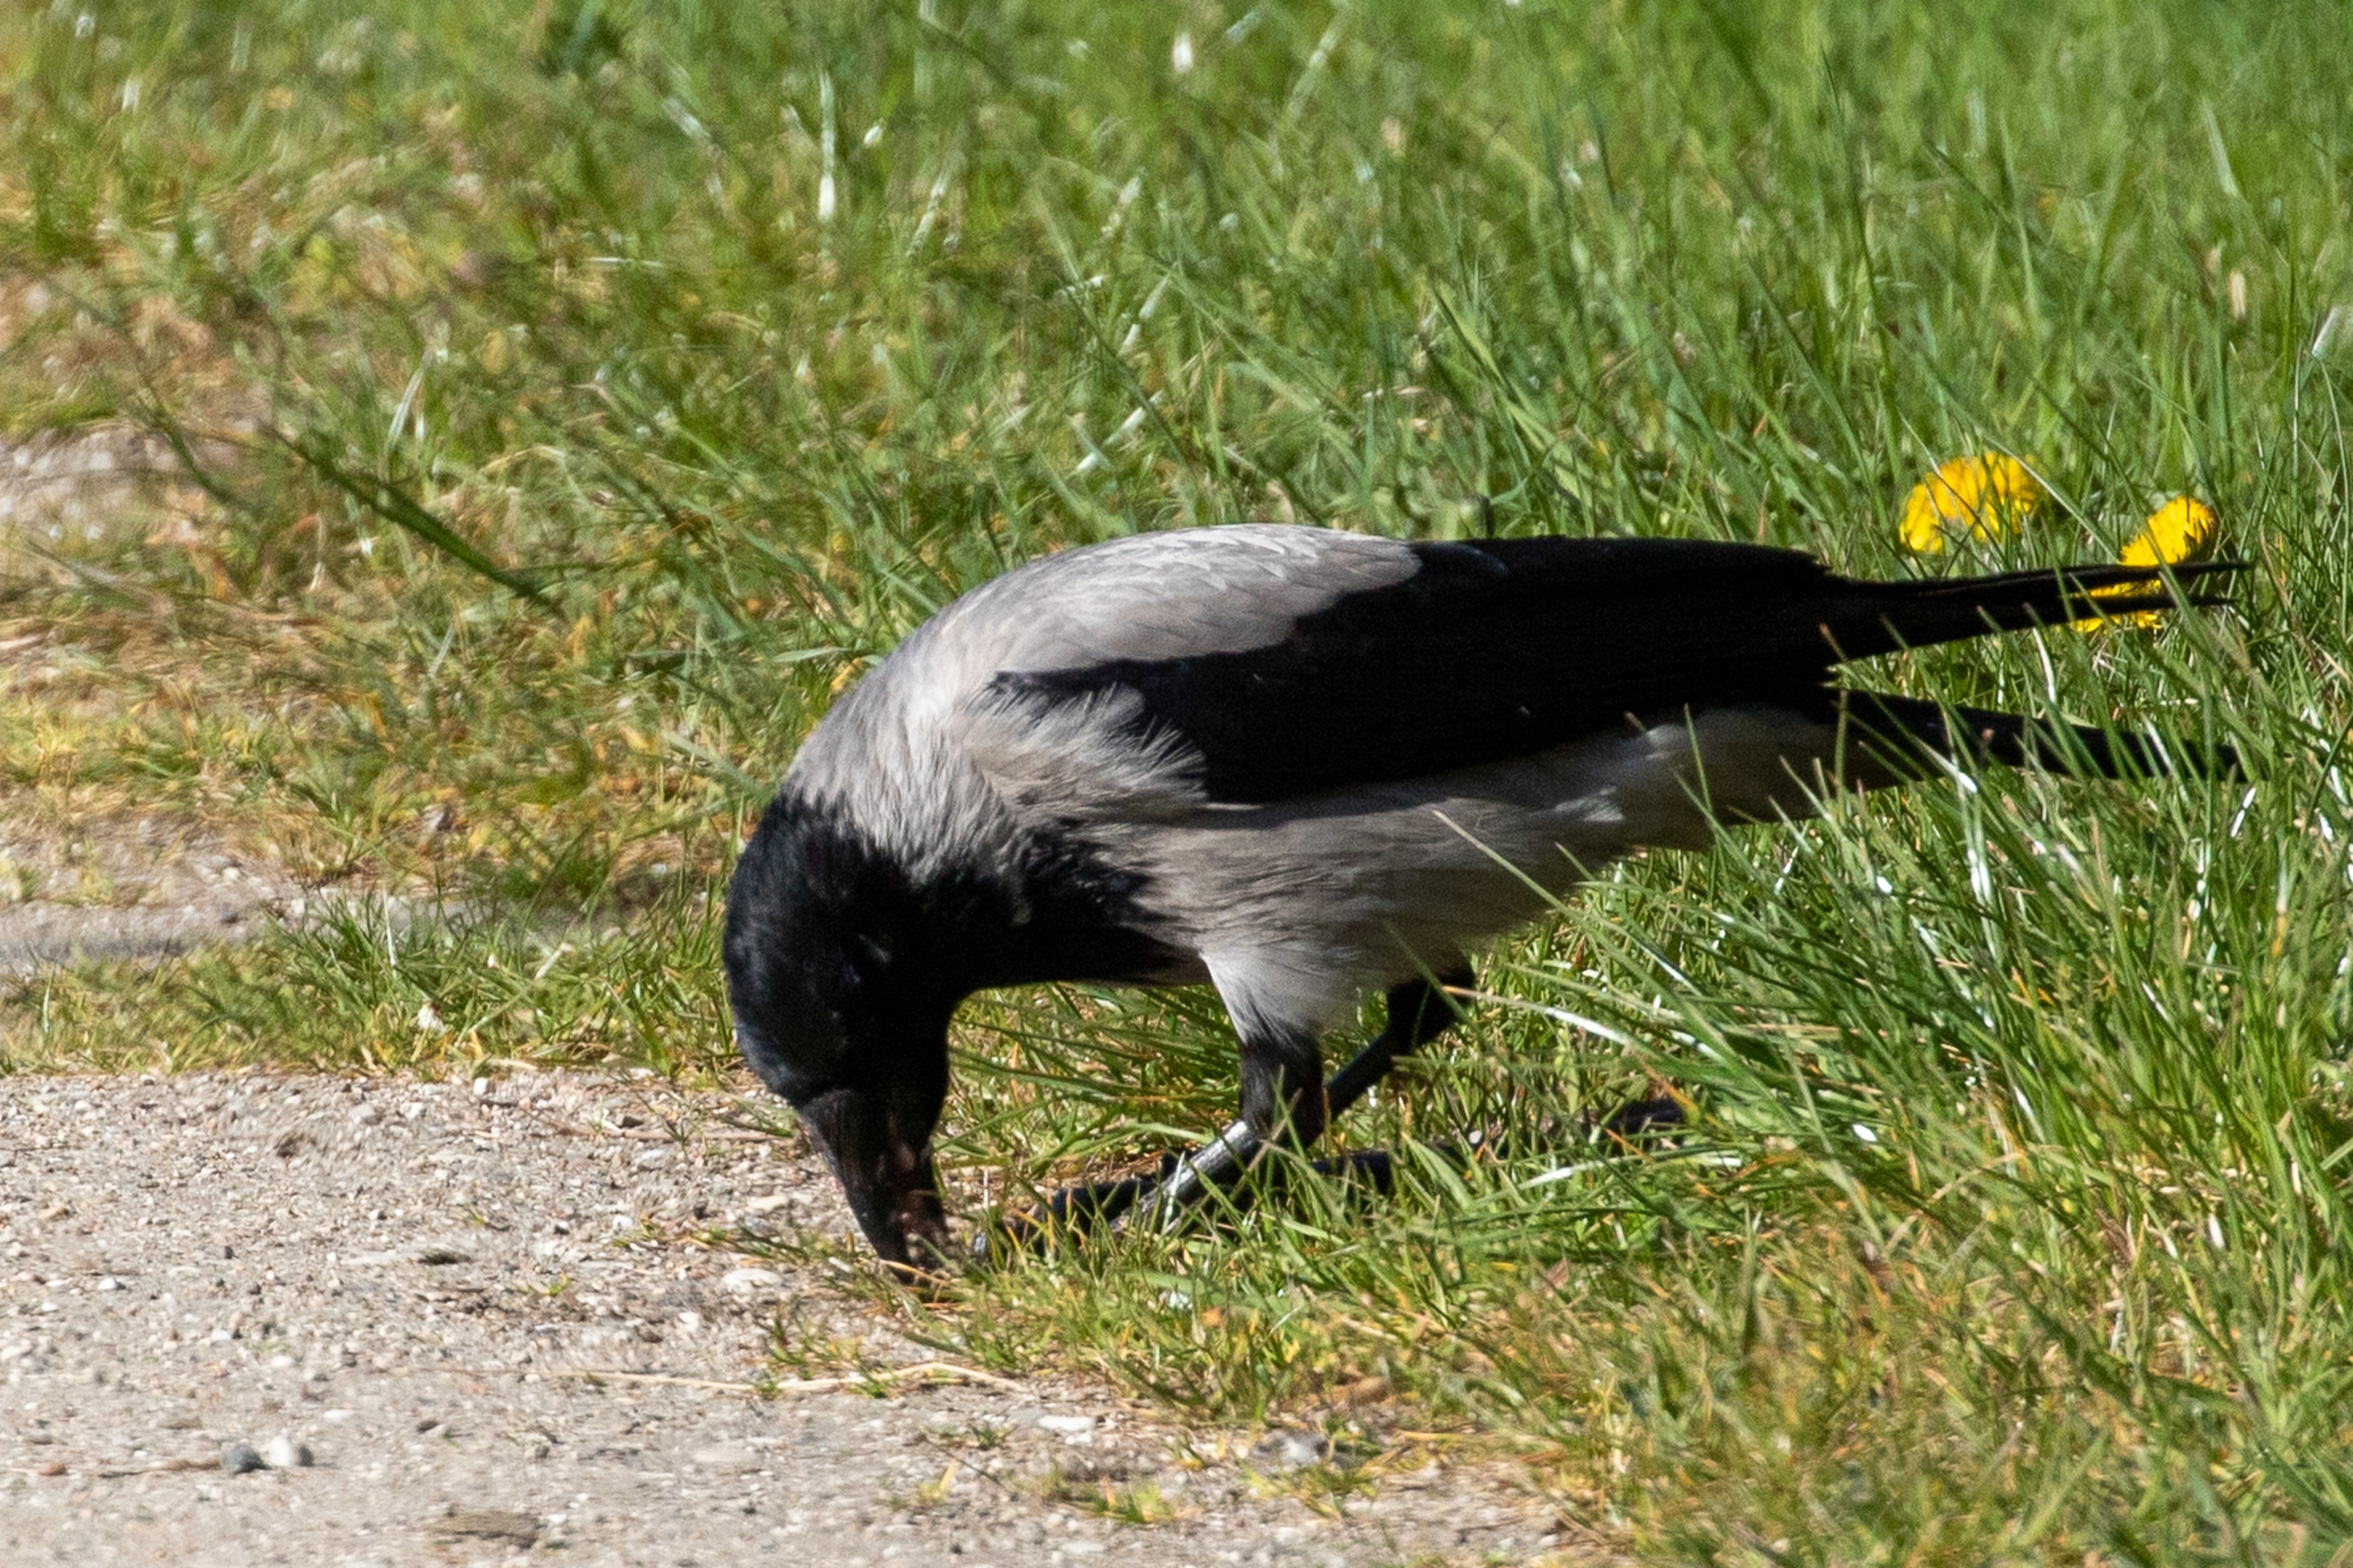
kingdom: Animalia
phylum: Chordata
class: Aves
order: Passeriformes
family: Corvidae
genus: Corvus
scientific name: Corvus cornix
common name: Gråkrage
